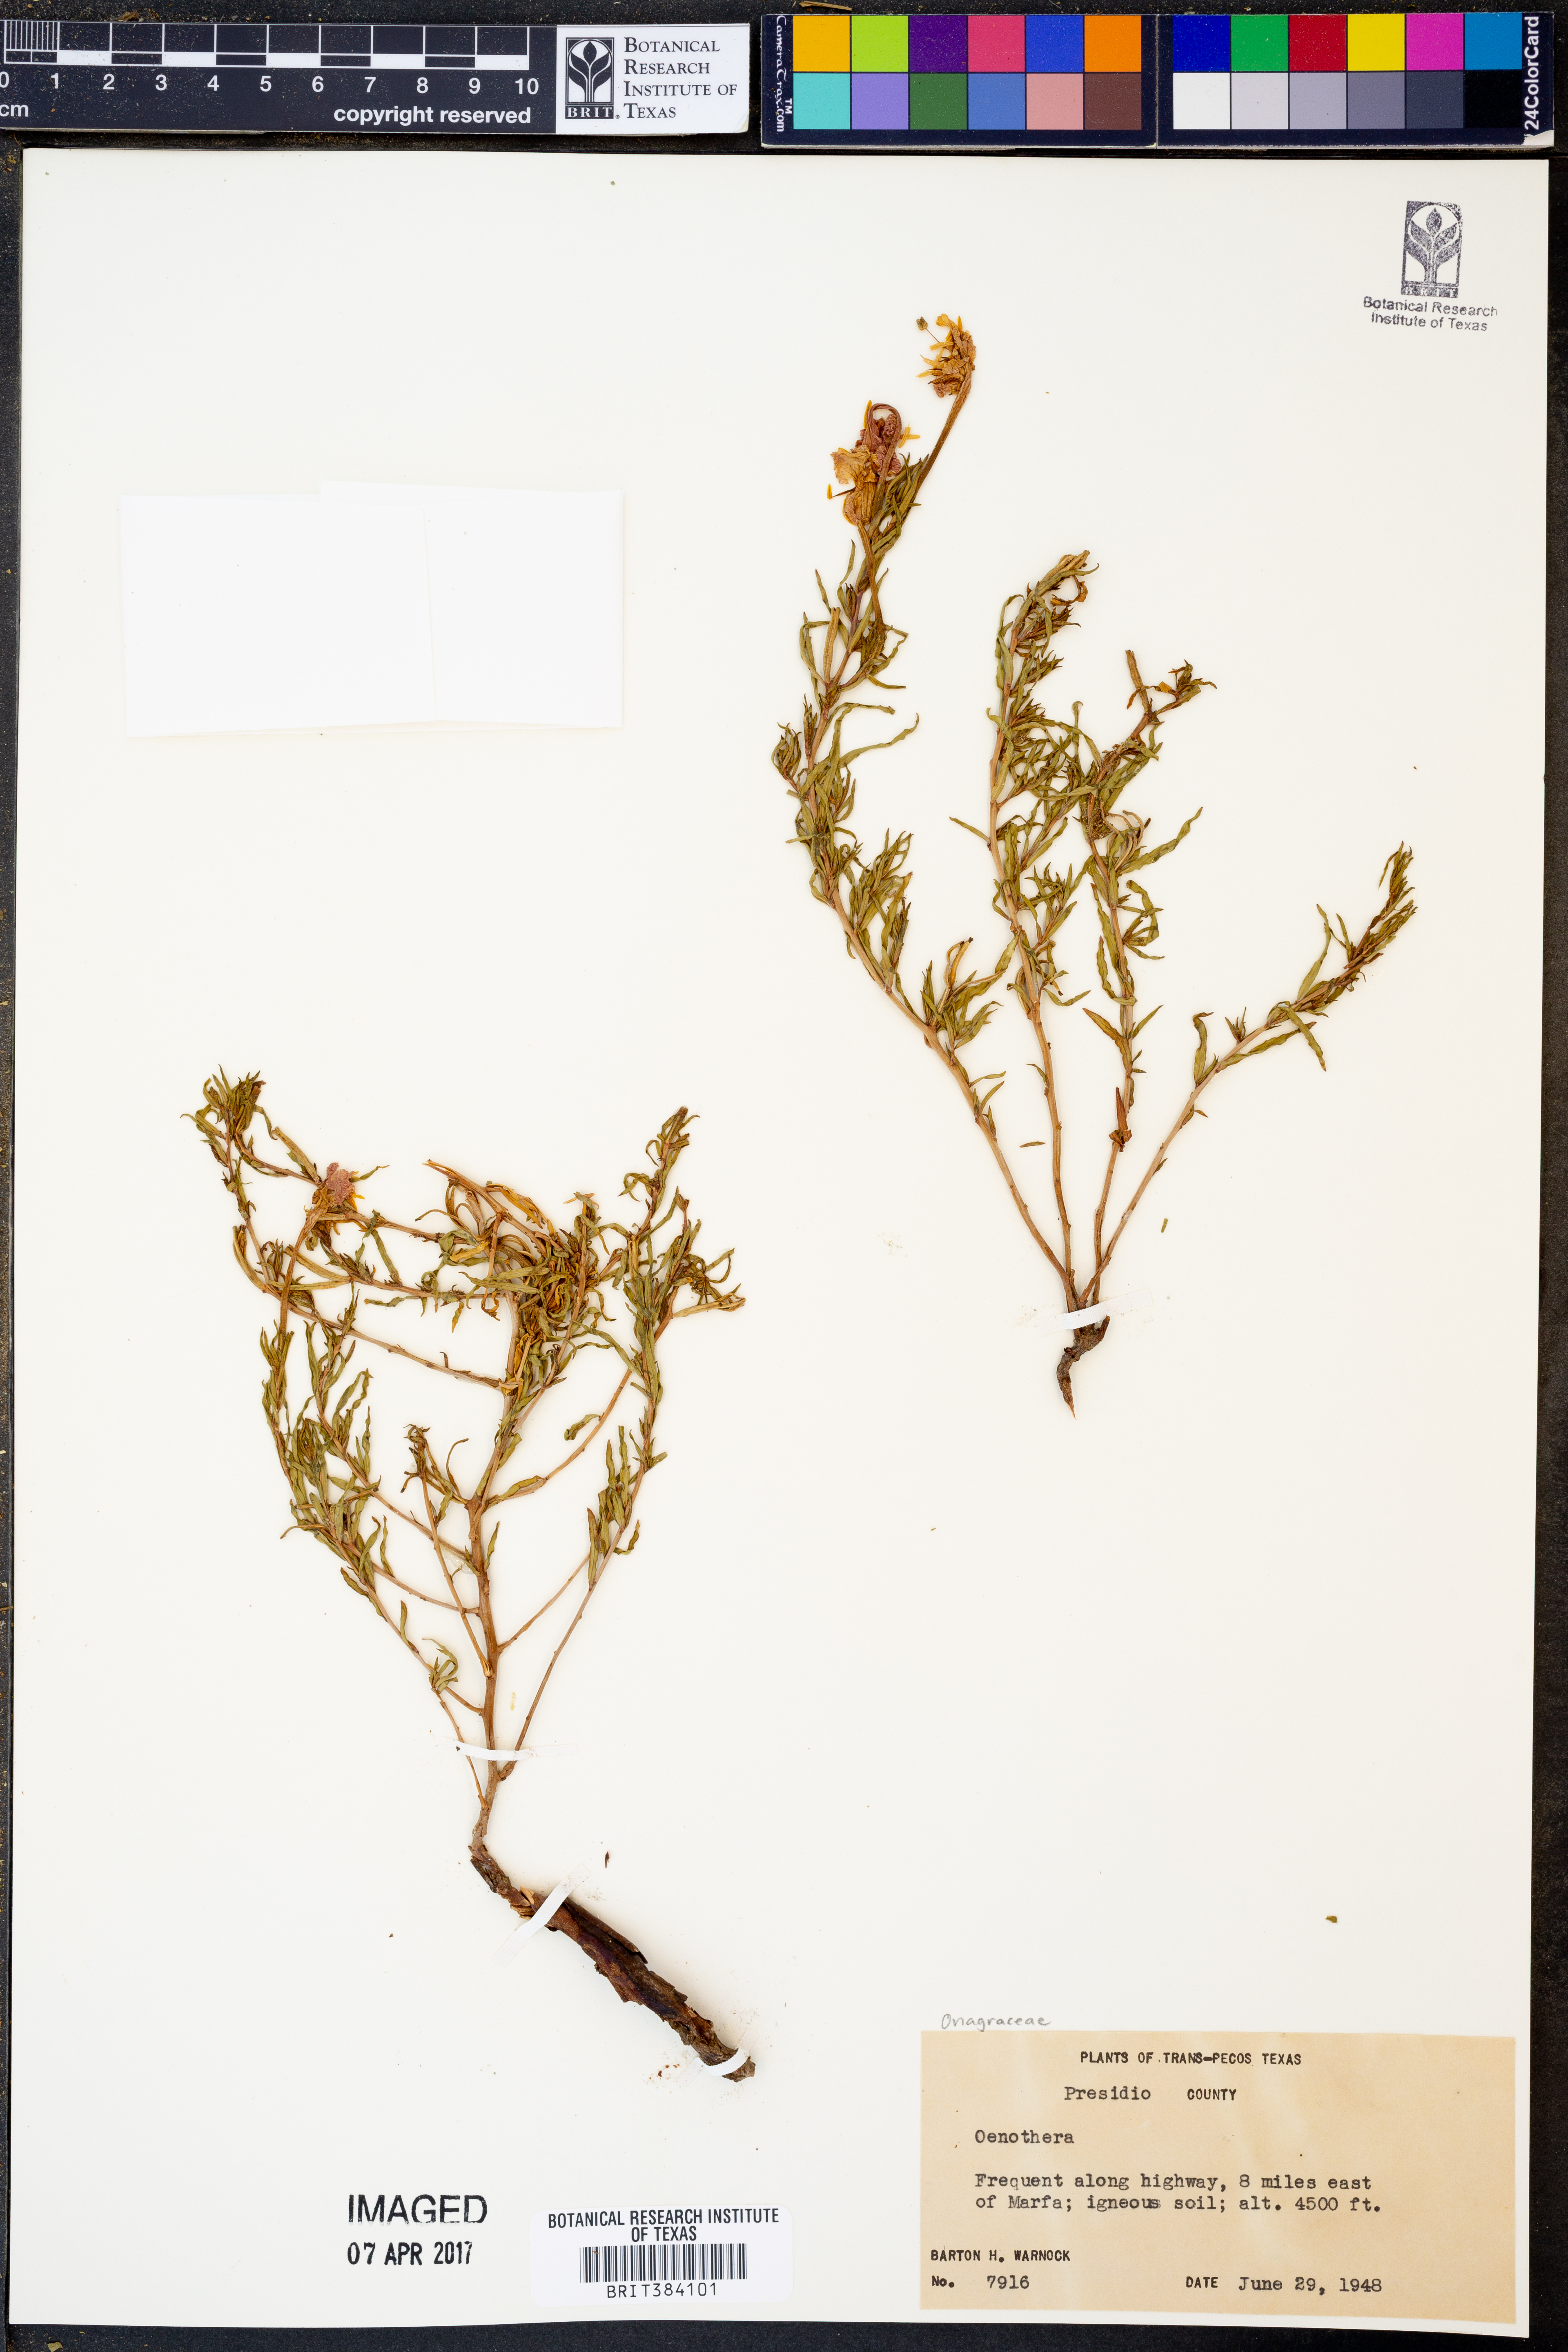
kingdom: Plantae
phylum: Tracheophyta
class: Magnoliopsida
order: Myrtales
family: Onagraceae
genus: Oenothera
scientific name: Oenothera
